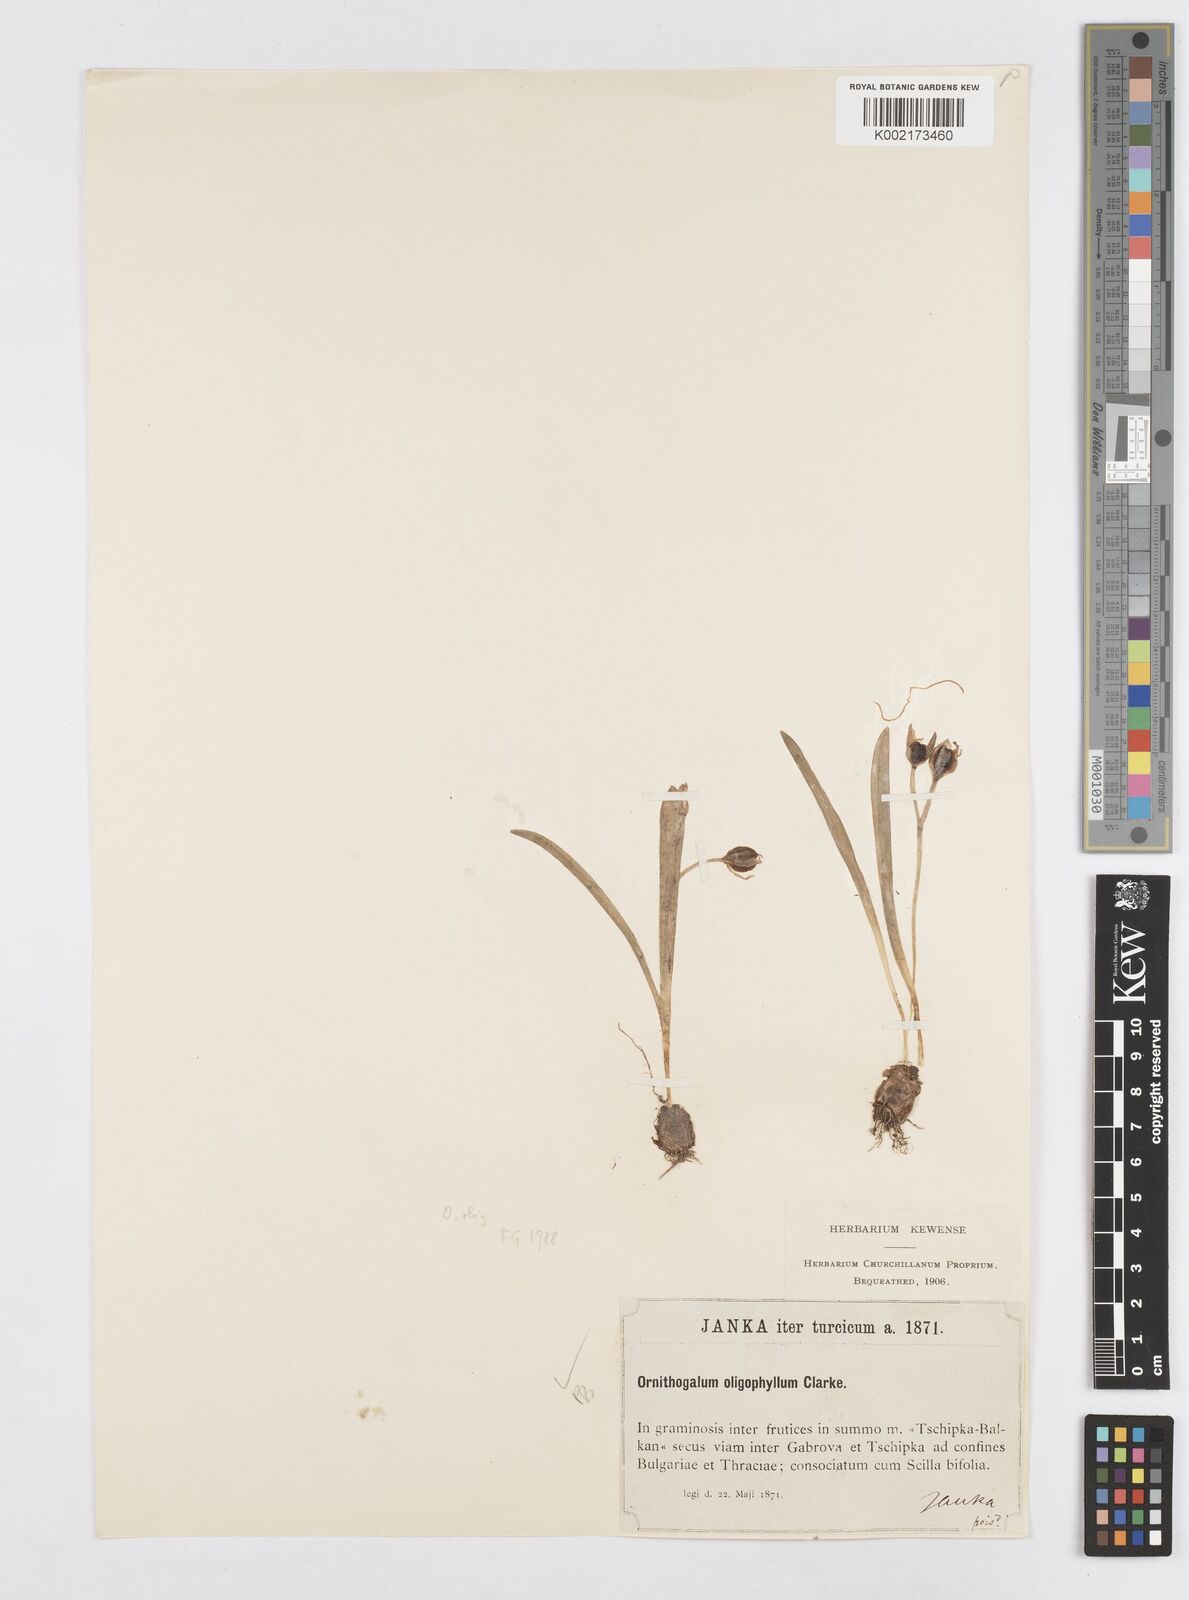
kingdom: Plantae
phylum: Tracheophyta
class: Liliopsida
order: Asparagales
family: Asparagaceae
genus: Ornithogalum
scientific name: Ornithogalum oligophyllum
